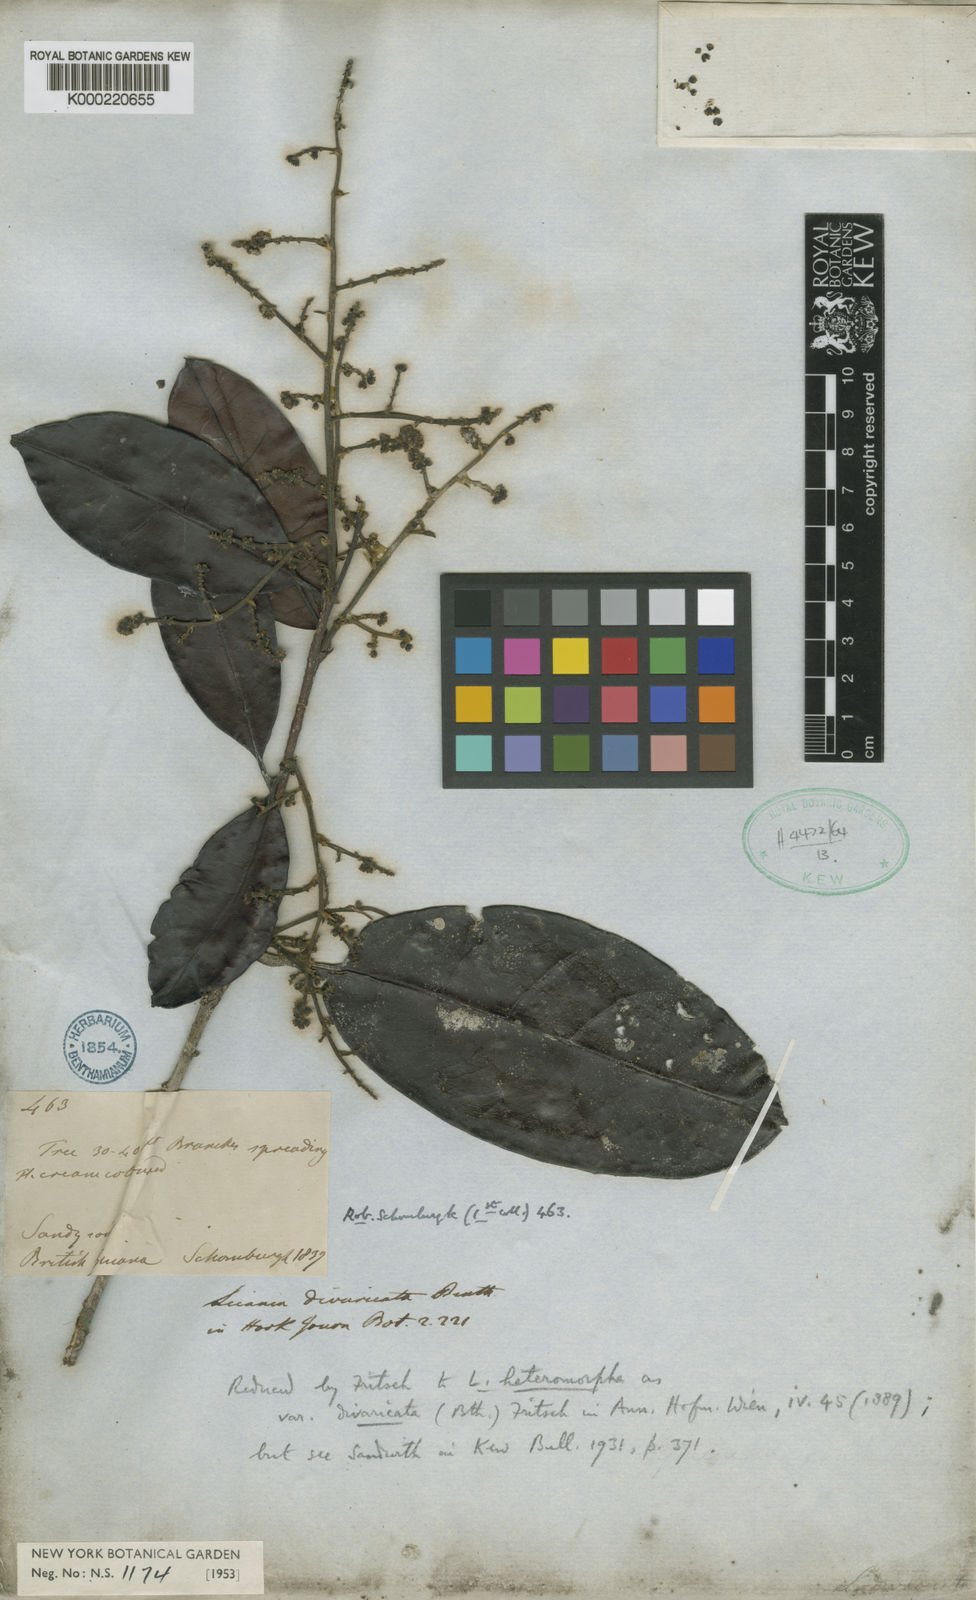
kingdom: Plantae
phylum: Tracheophyta
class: Magnoliopsida
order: Malpighiales
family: Chrysobalanaceae
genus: Hymenopus
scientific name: Hymenopus divaricatus
